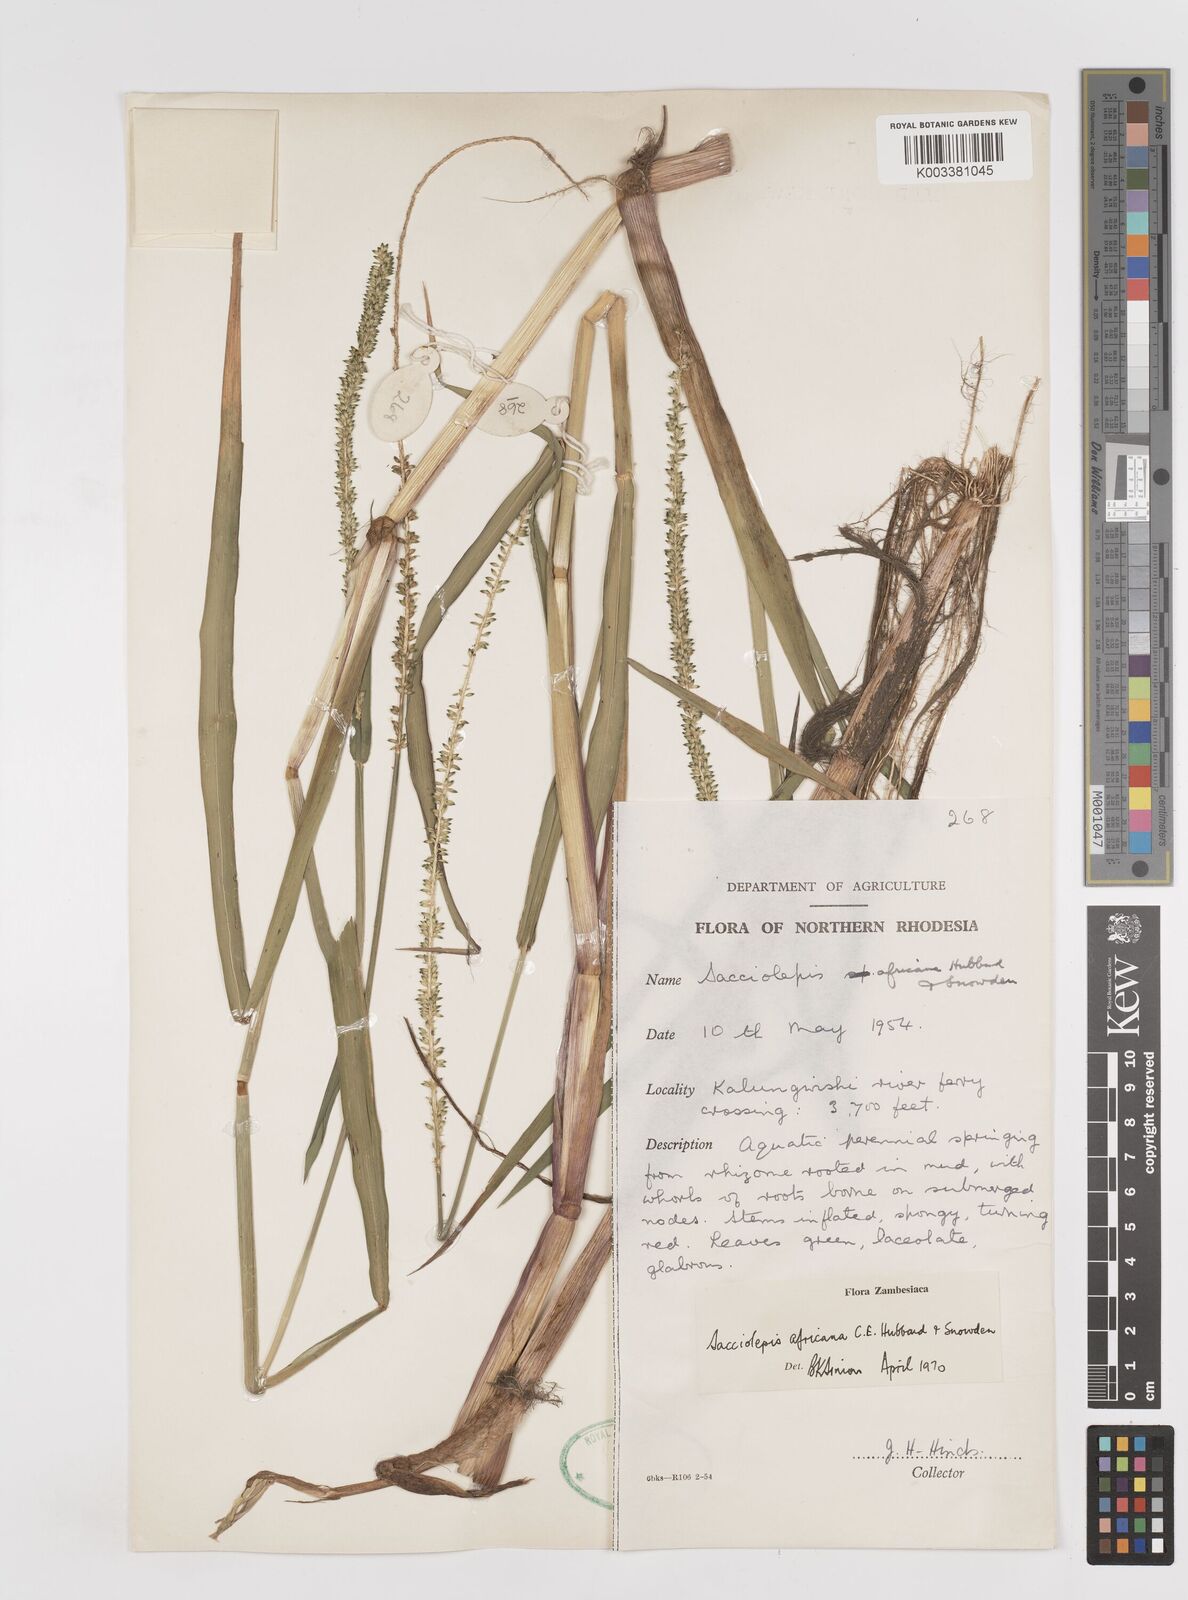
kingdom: Plantae
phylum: Tracheophyta
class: Liliopsida
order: Poales
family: Poaceae
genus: Sacciolepis
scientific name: Sacciolepis africana
